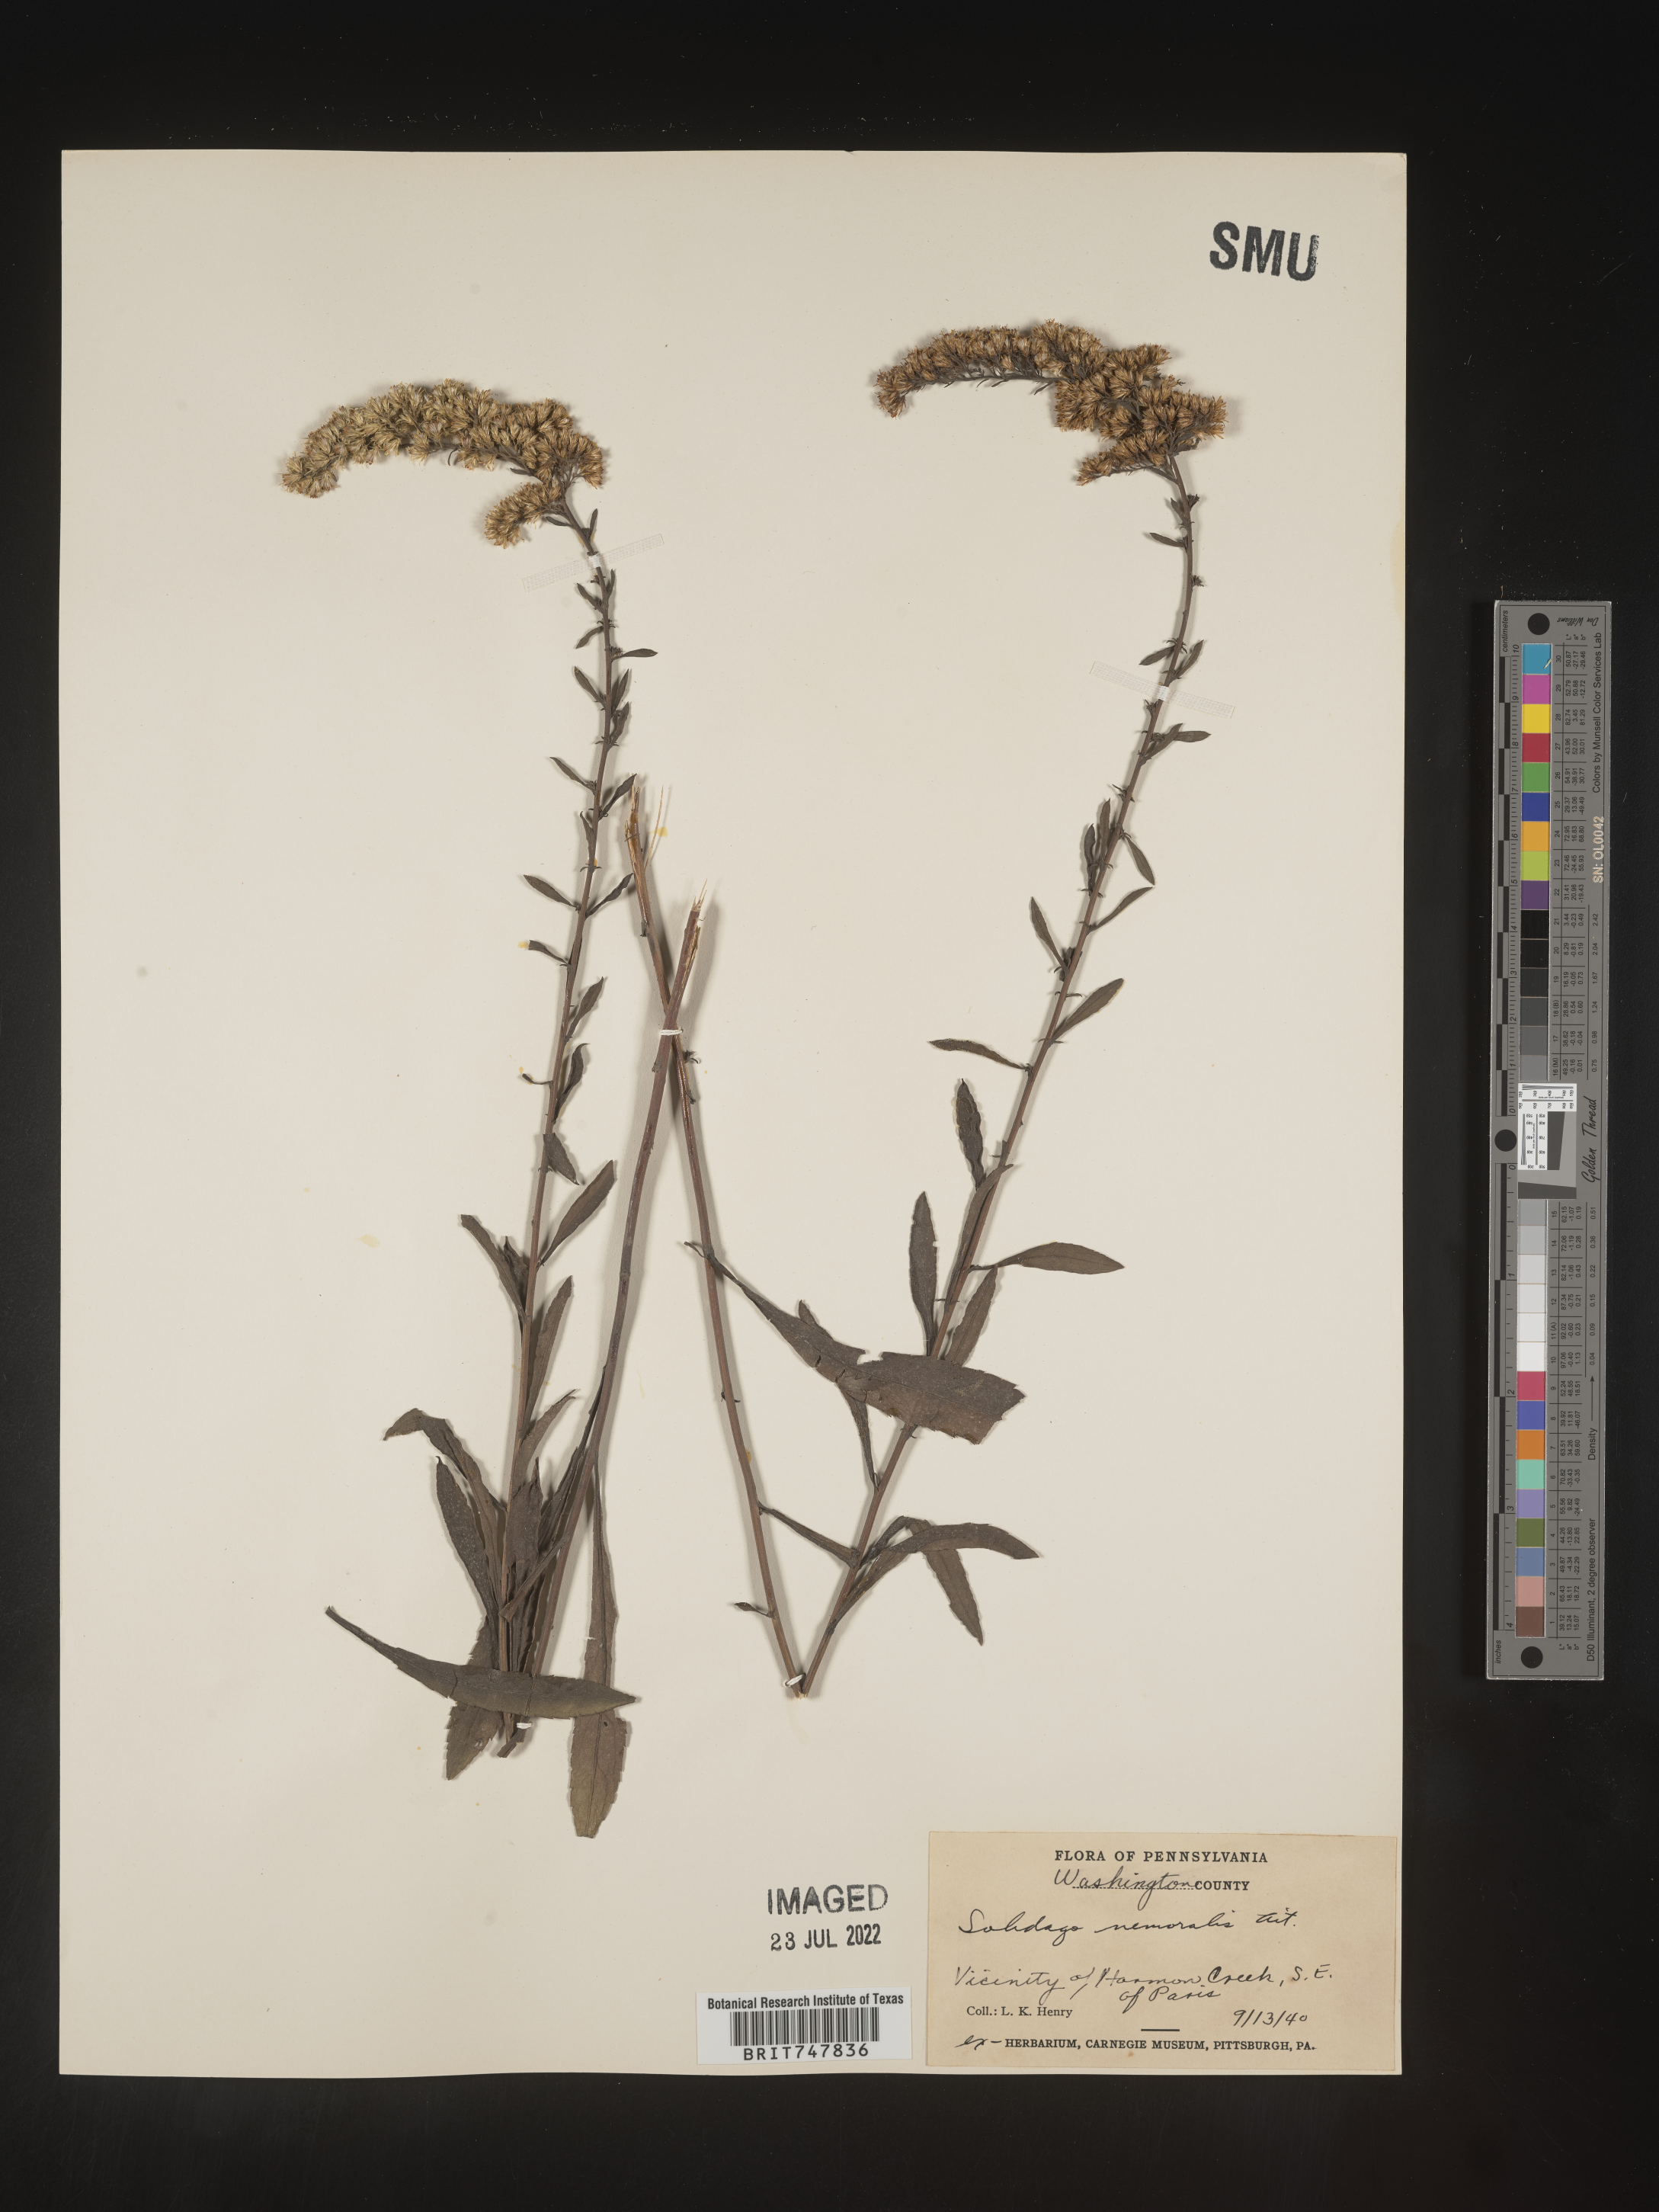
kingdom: Plantae
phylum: Tracheophyta
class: Magnoliopsida
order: Asterales
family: Asteraceae
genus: Solidago
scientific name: Solidago nemoralis
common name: Grey goldenrod
